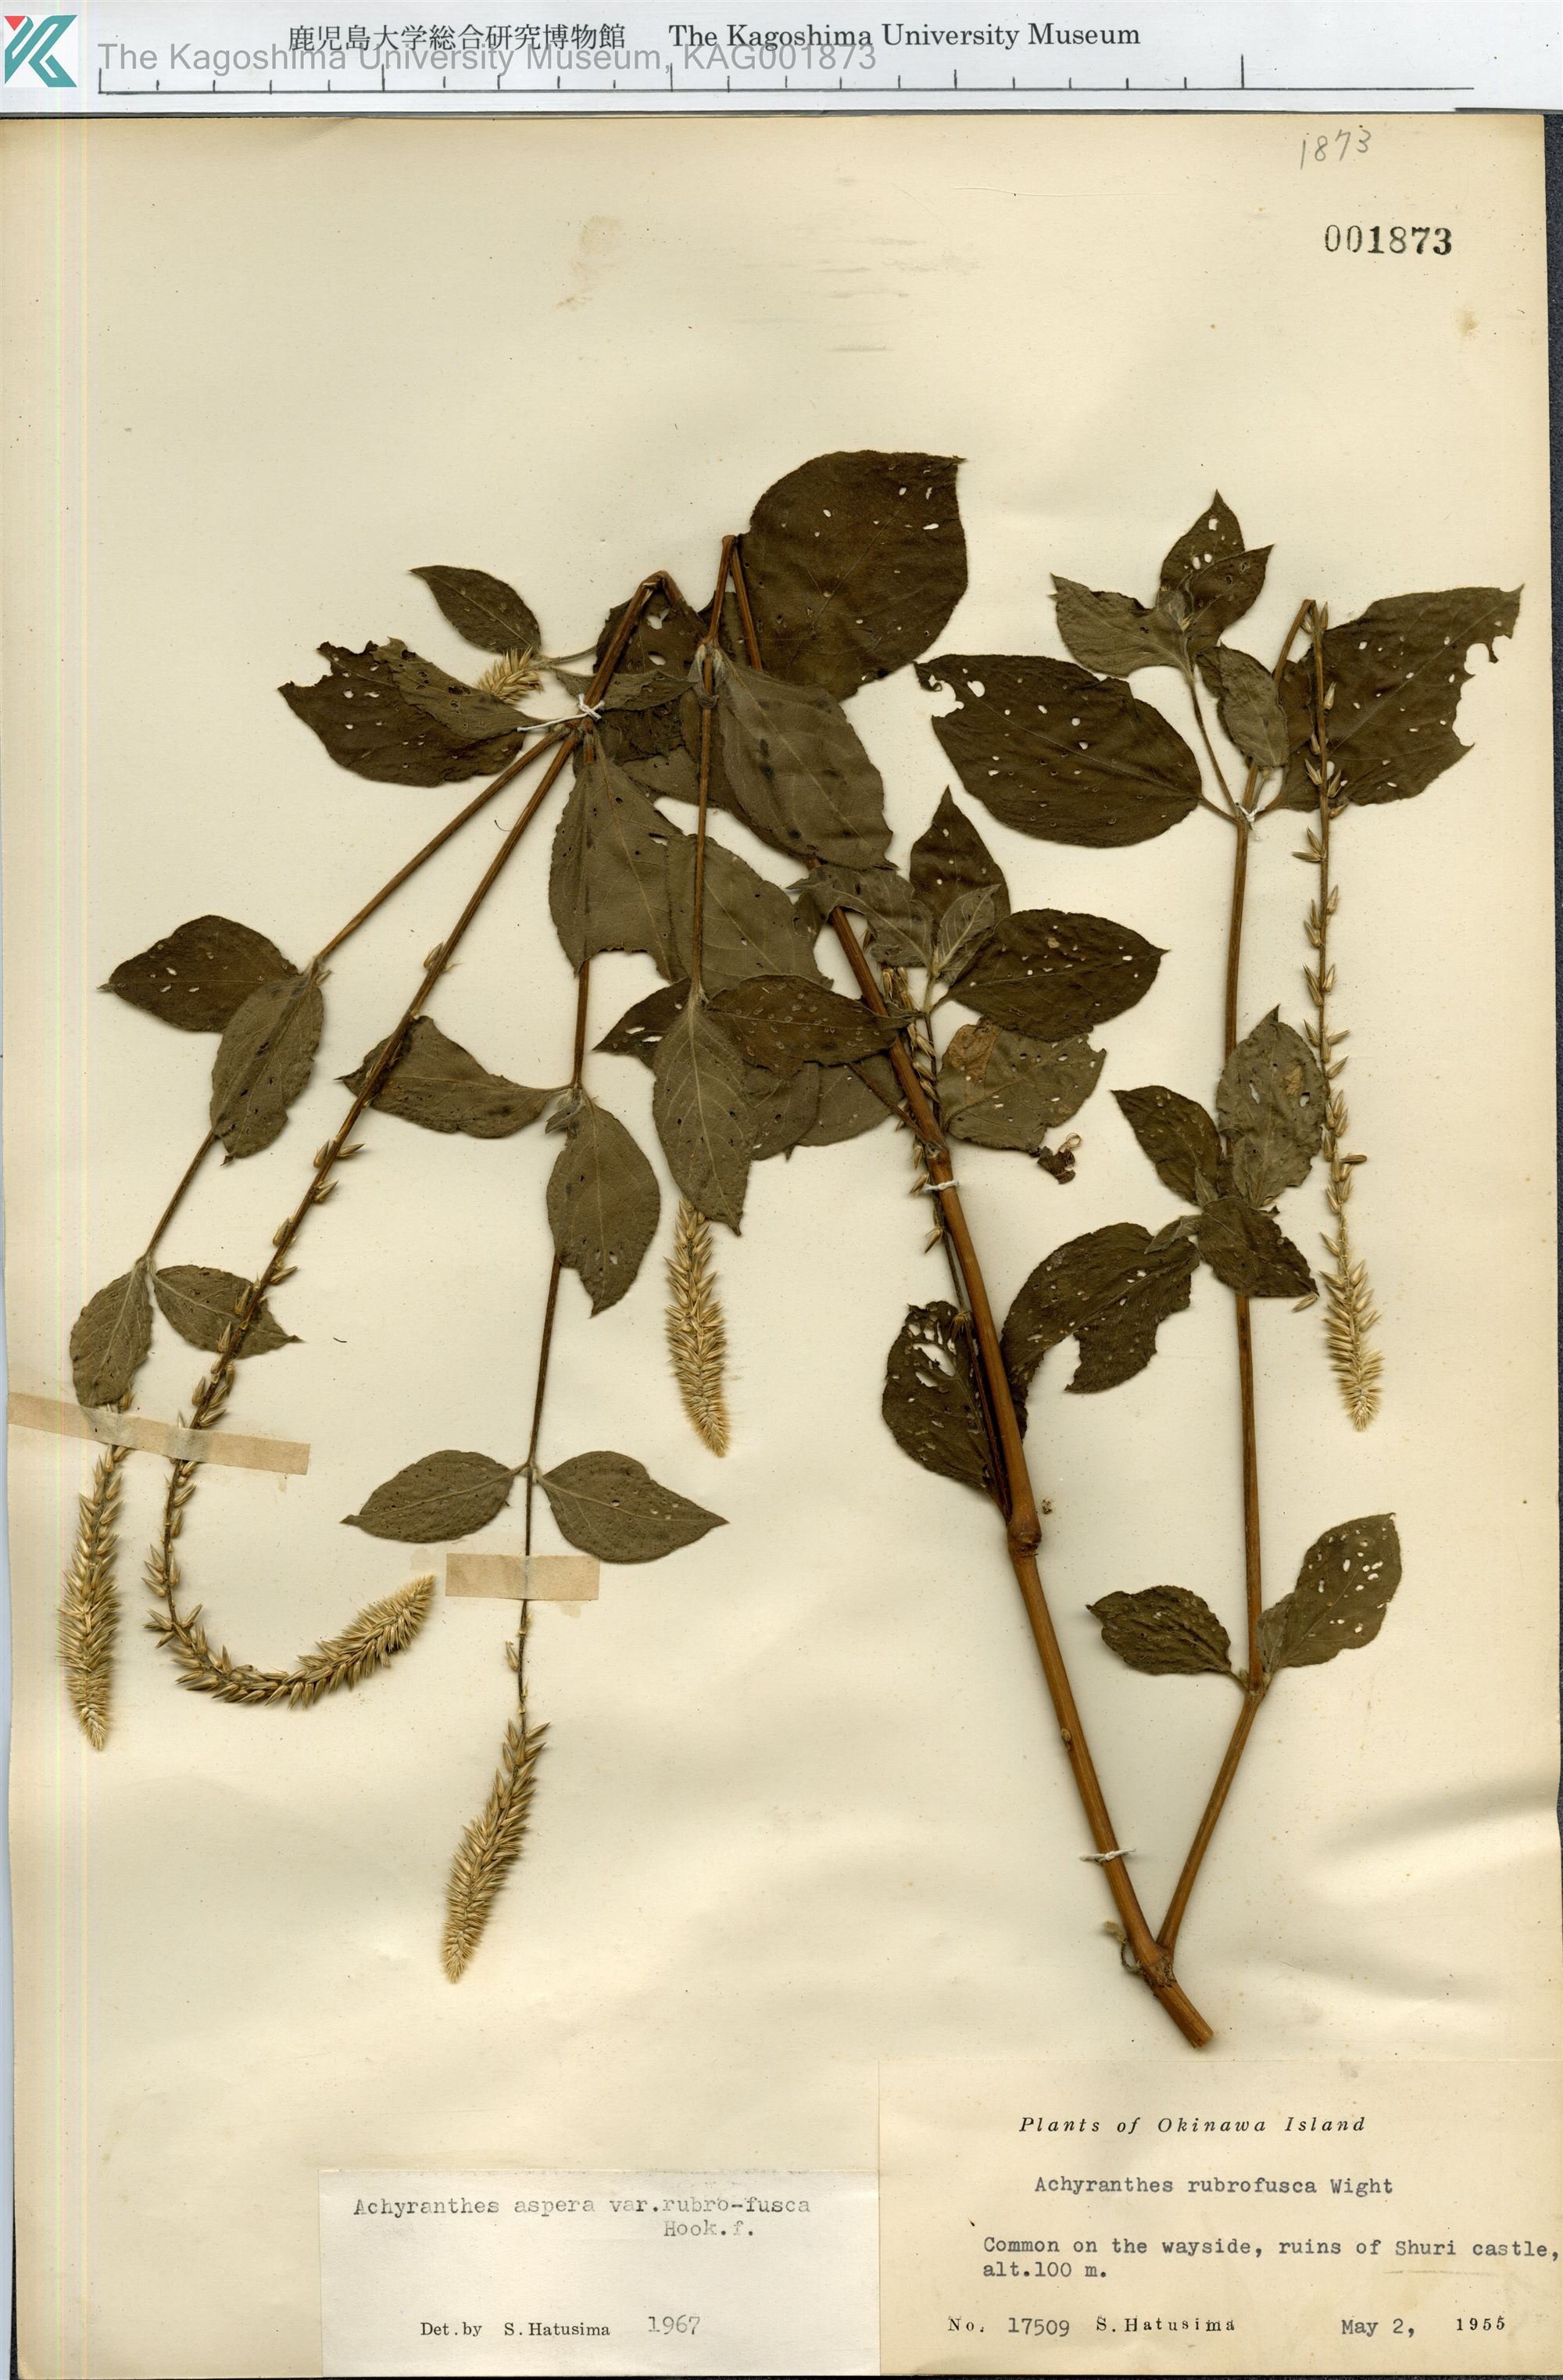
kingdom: Plantae
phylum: Tracheophyta
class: Magnoliopsida
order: Caryophyllales
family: Amaranthaceae
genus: Achyranthes
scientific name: Achyranthes aspera
